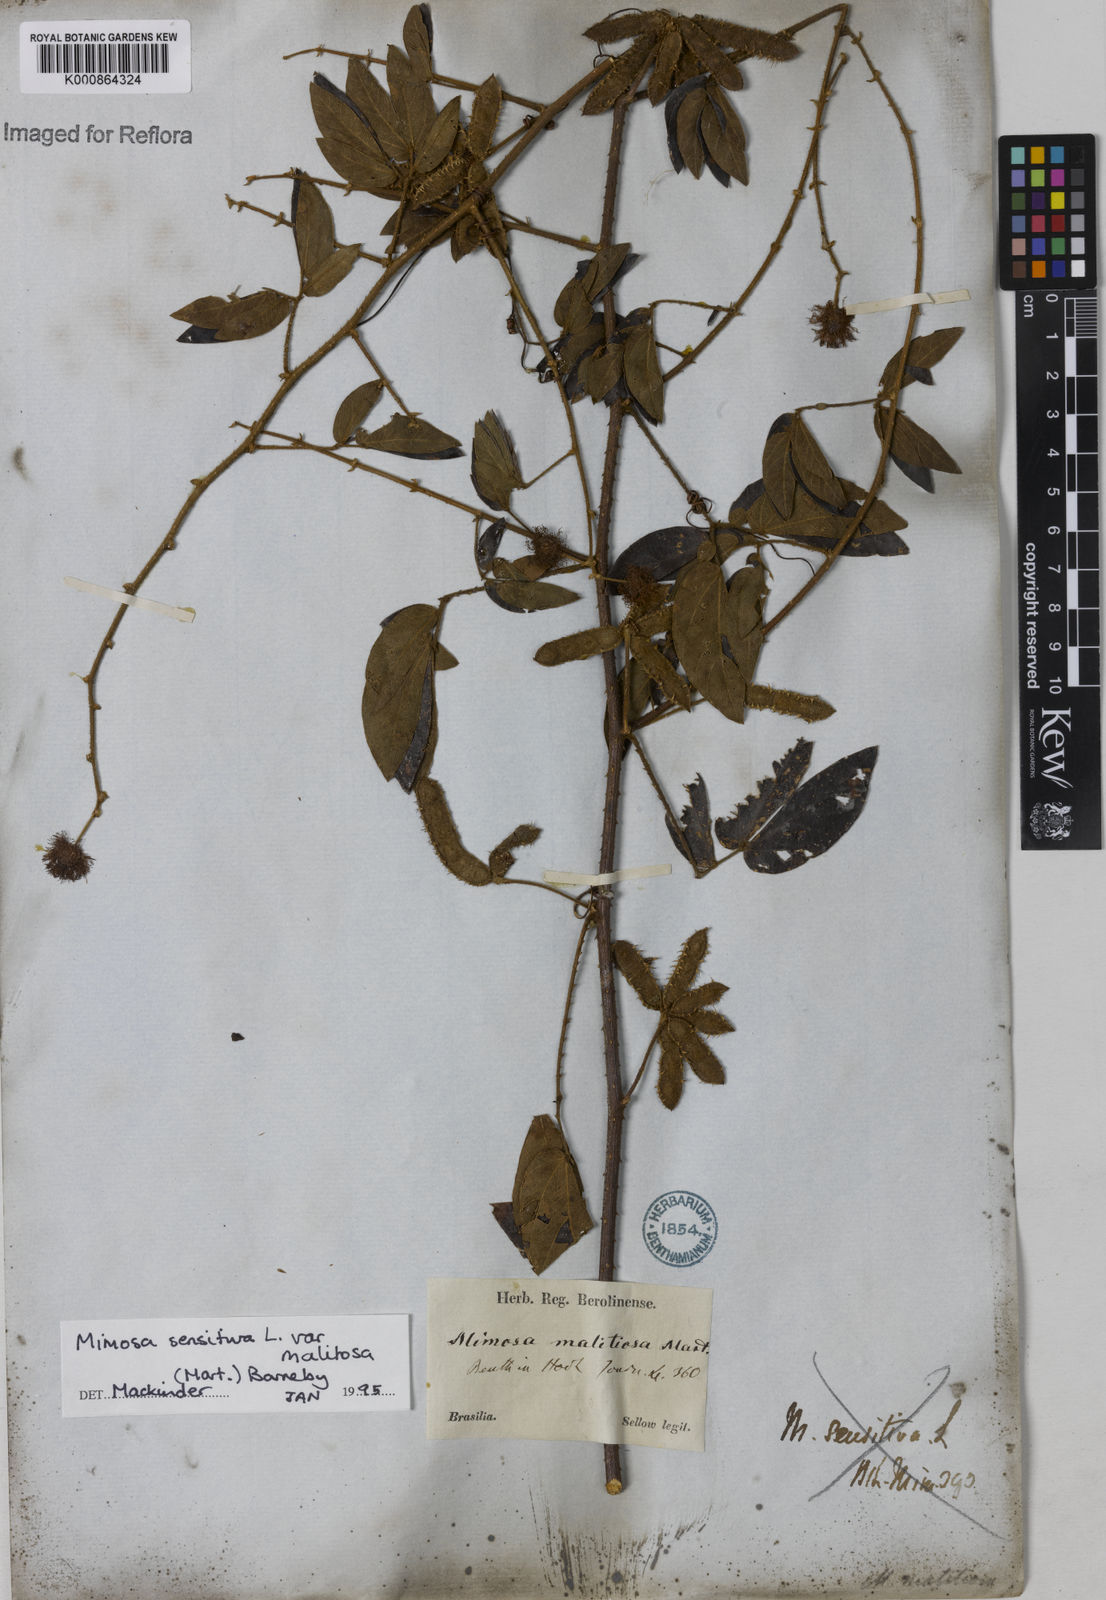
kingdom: Plantae
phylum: Tracheophyta
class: Magnoliopsida
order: Fabales
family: Fabaceae
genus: Mimosa
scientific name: Mimosa sensitiva
